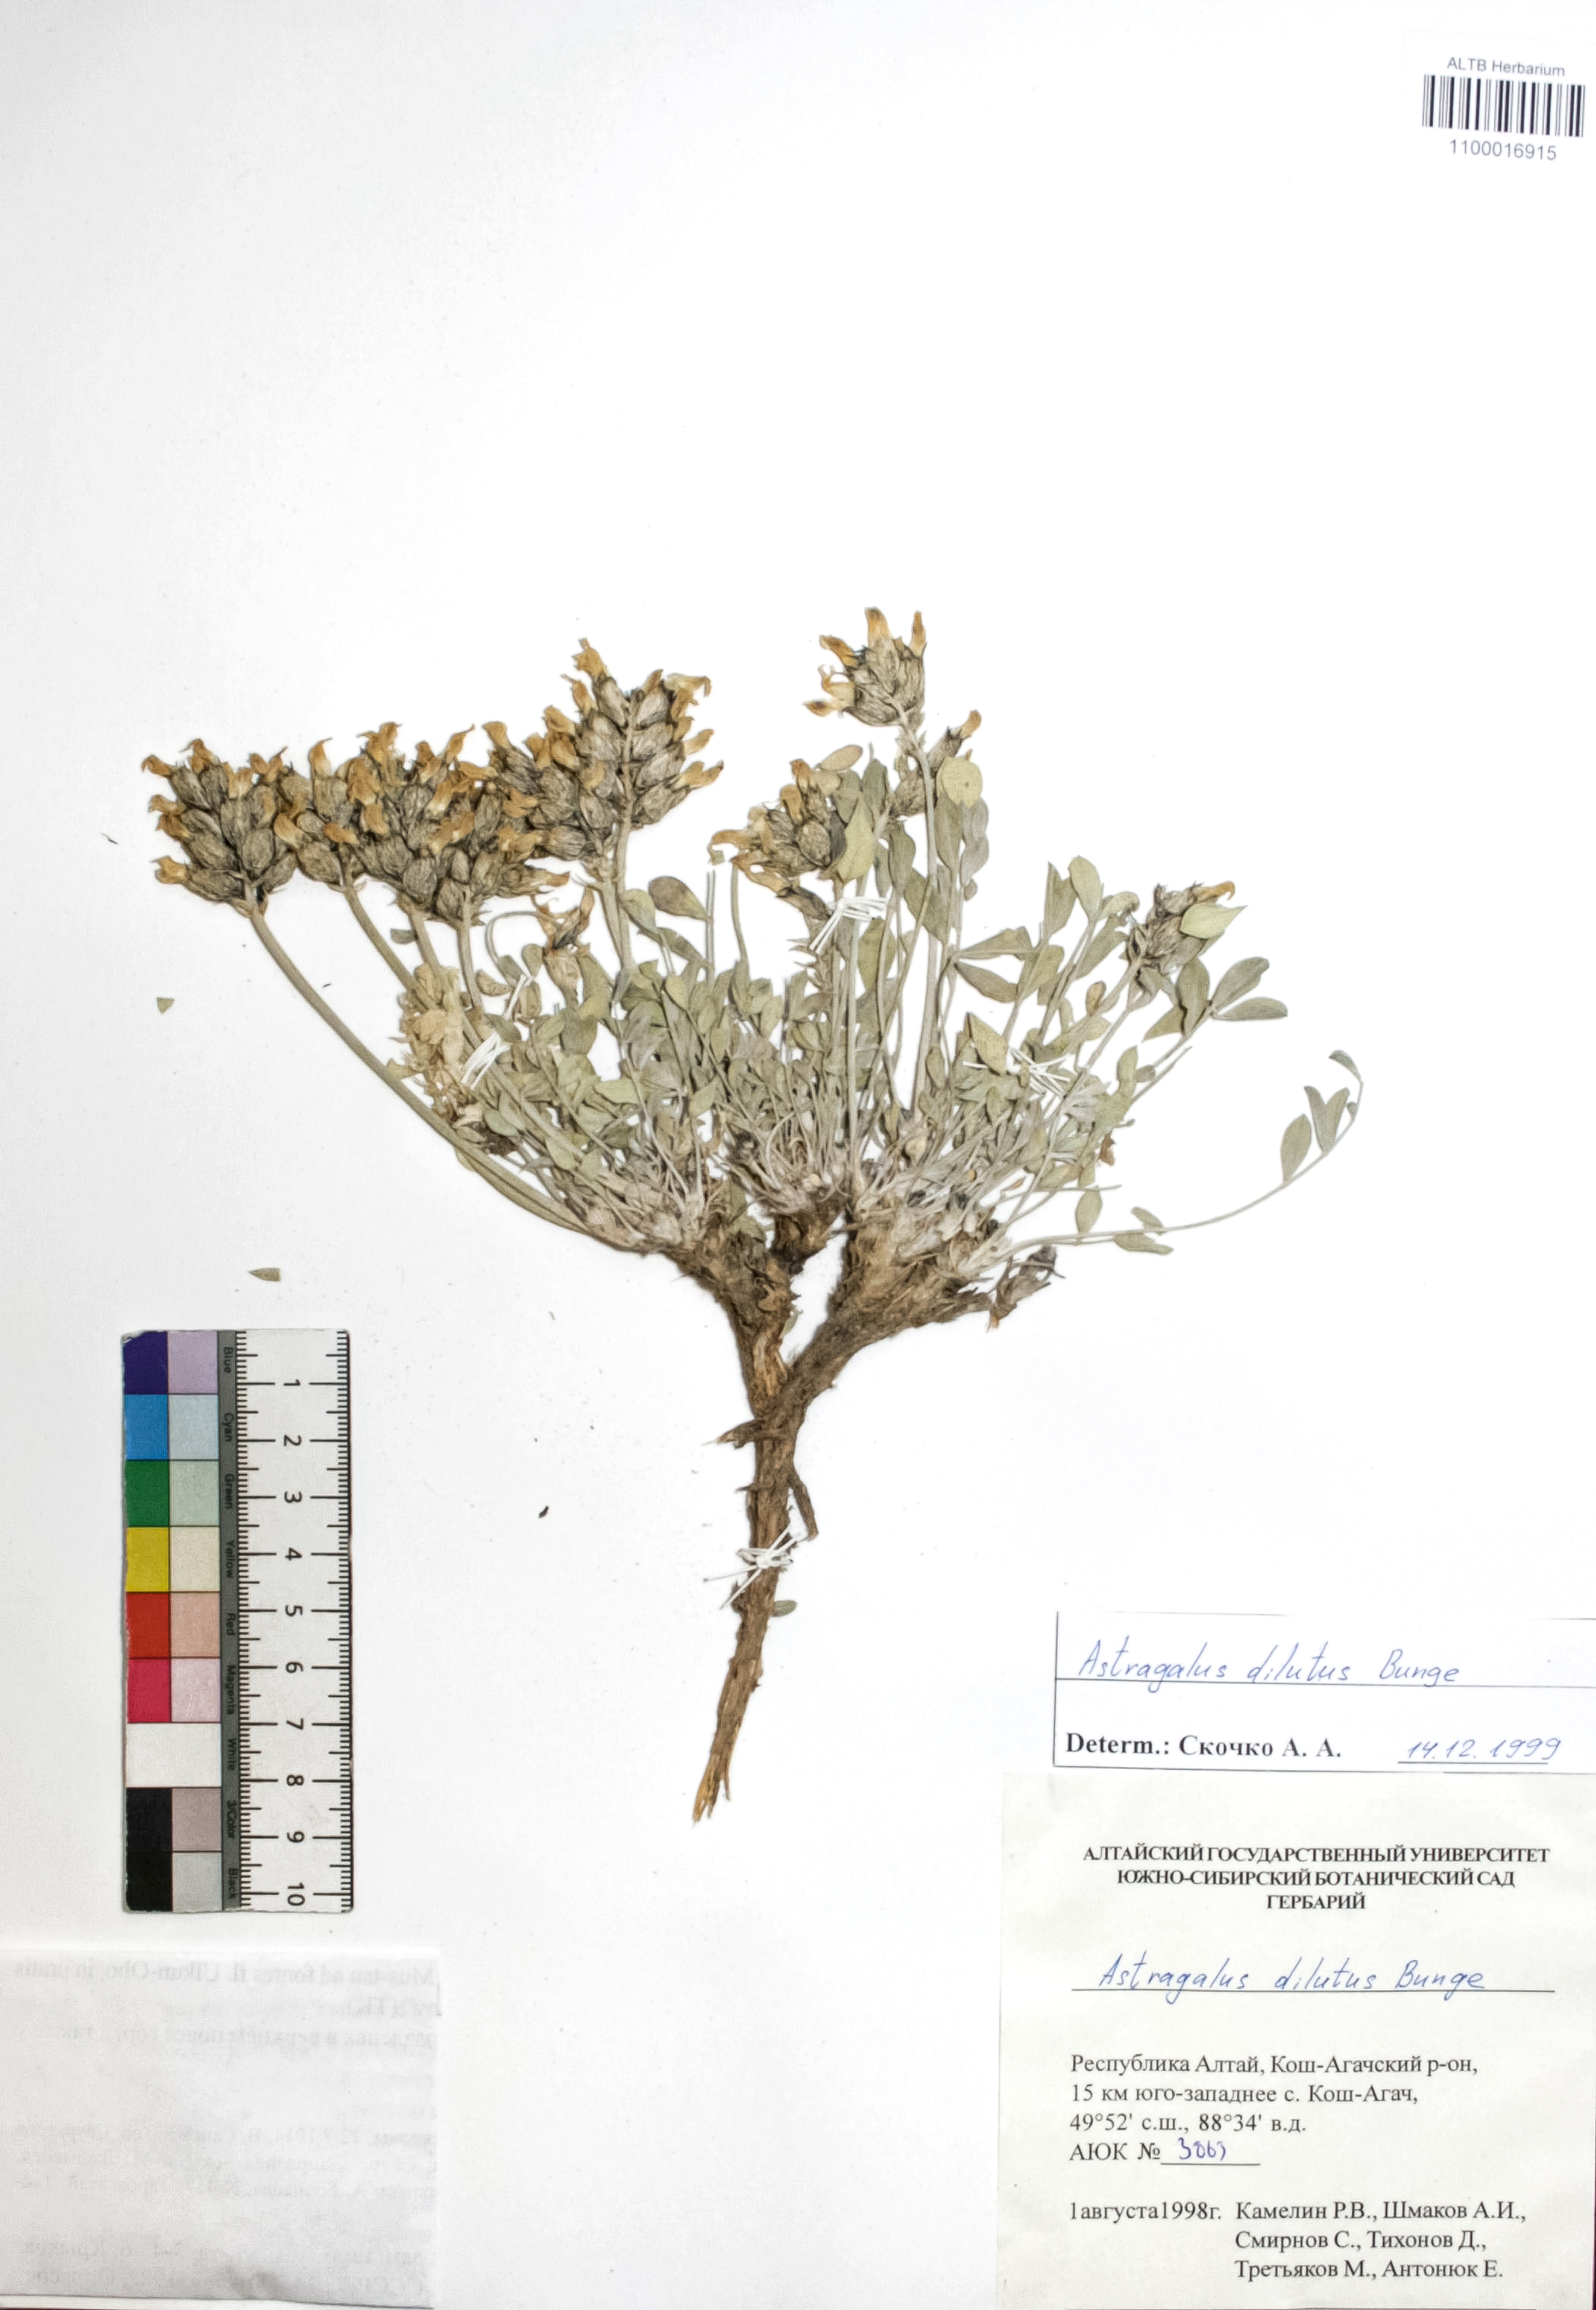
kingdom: Plantae
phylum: Tracheophyta
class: Magnoliopsida
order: Fabales
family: Fabaceae
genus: Astragalus
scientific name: Astragalus dilutus
